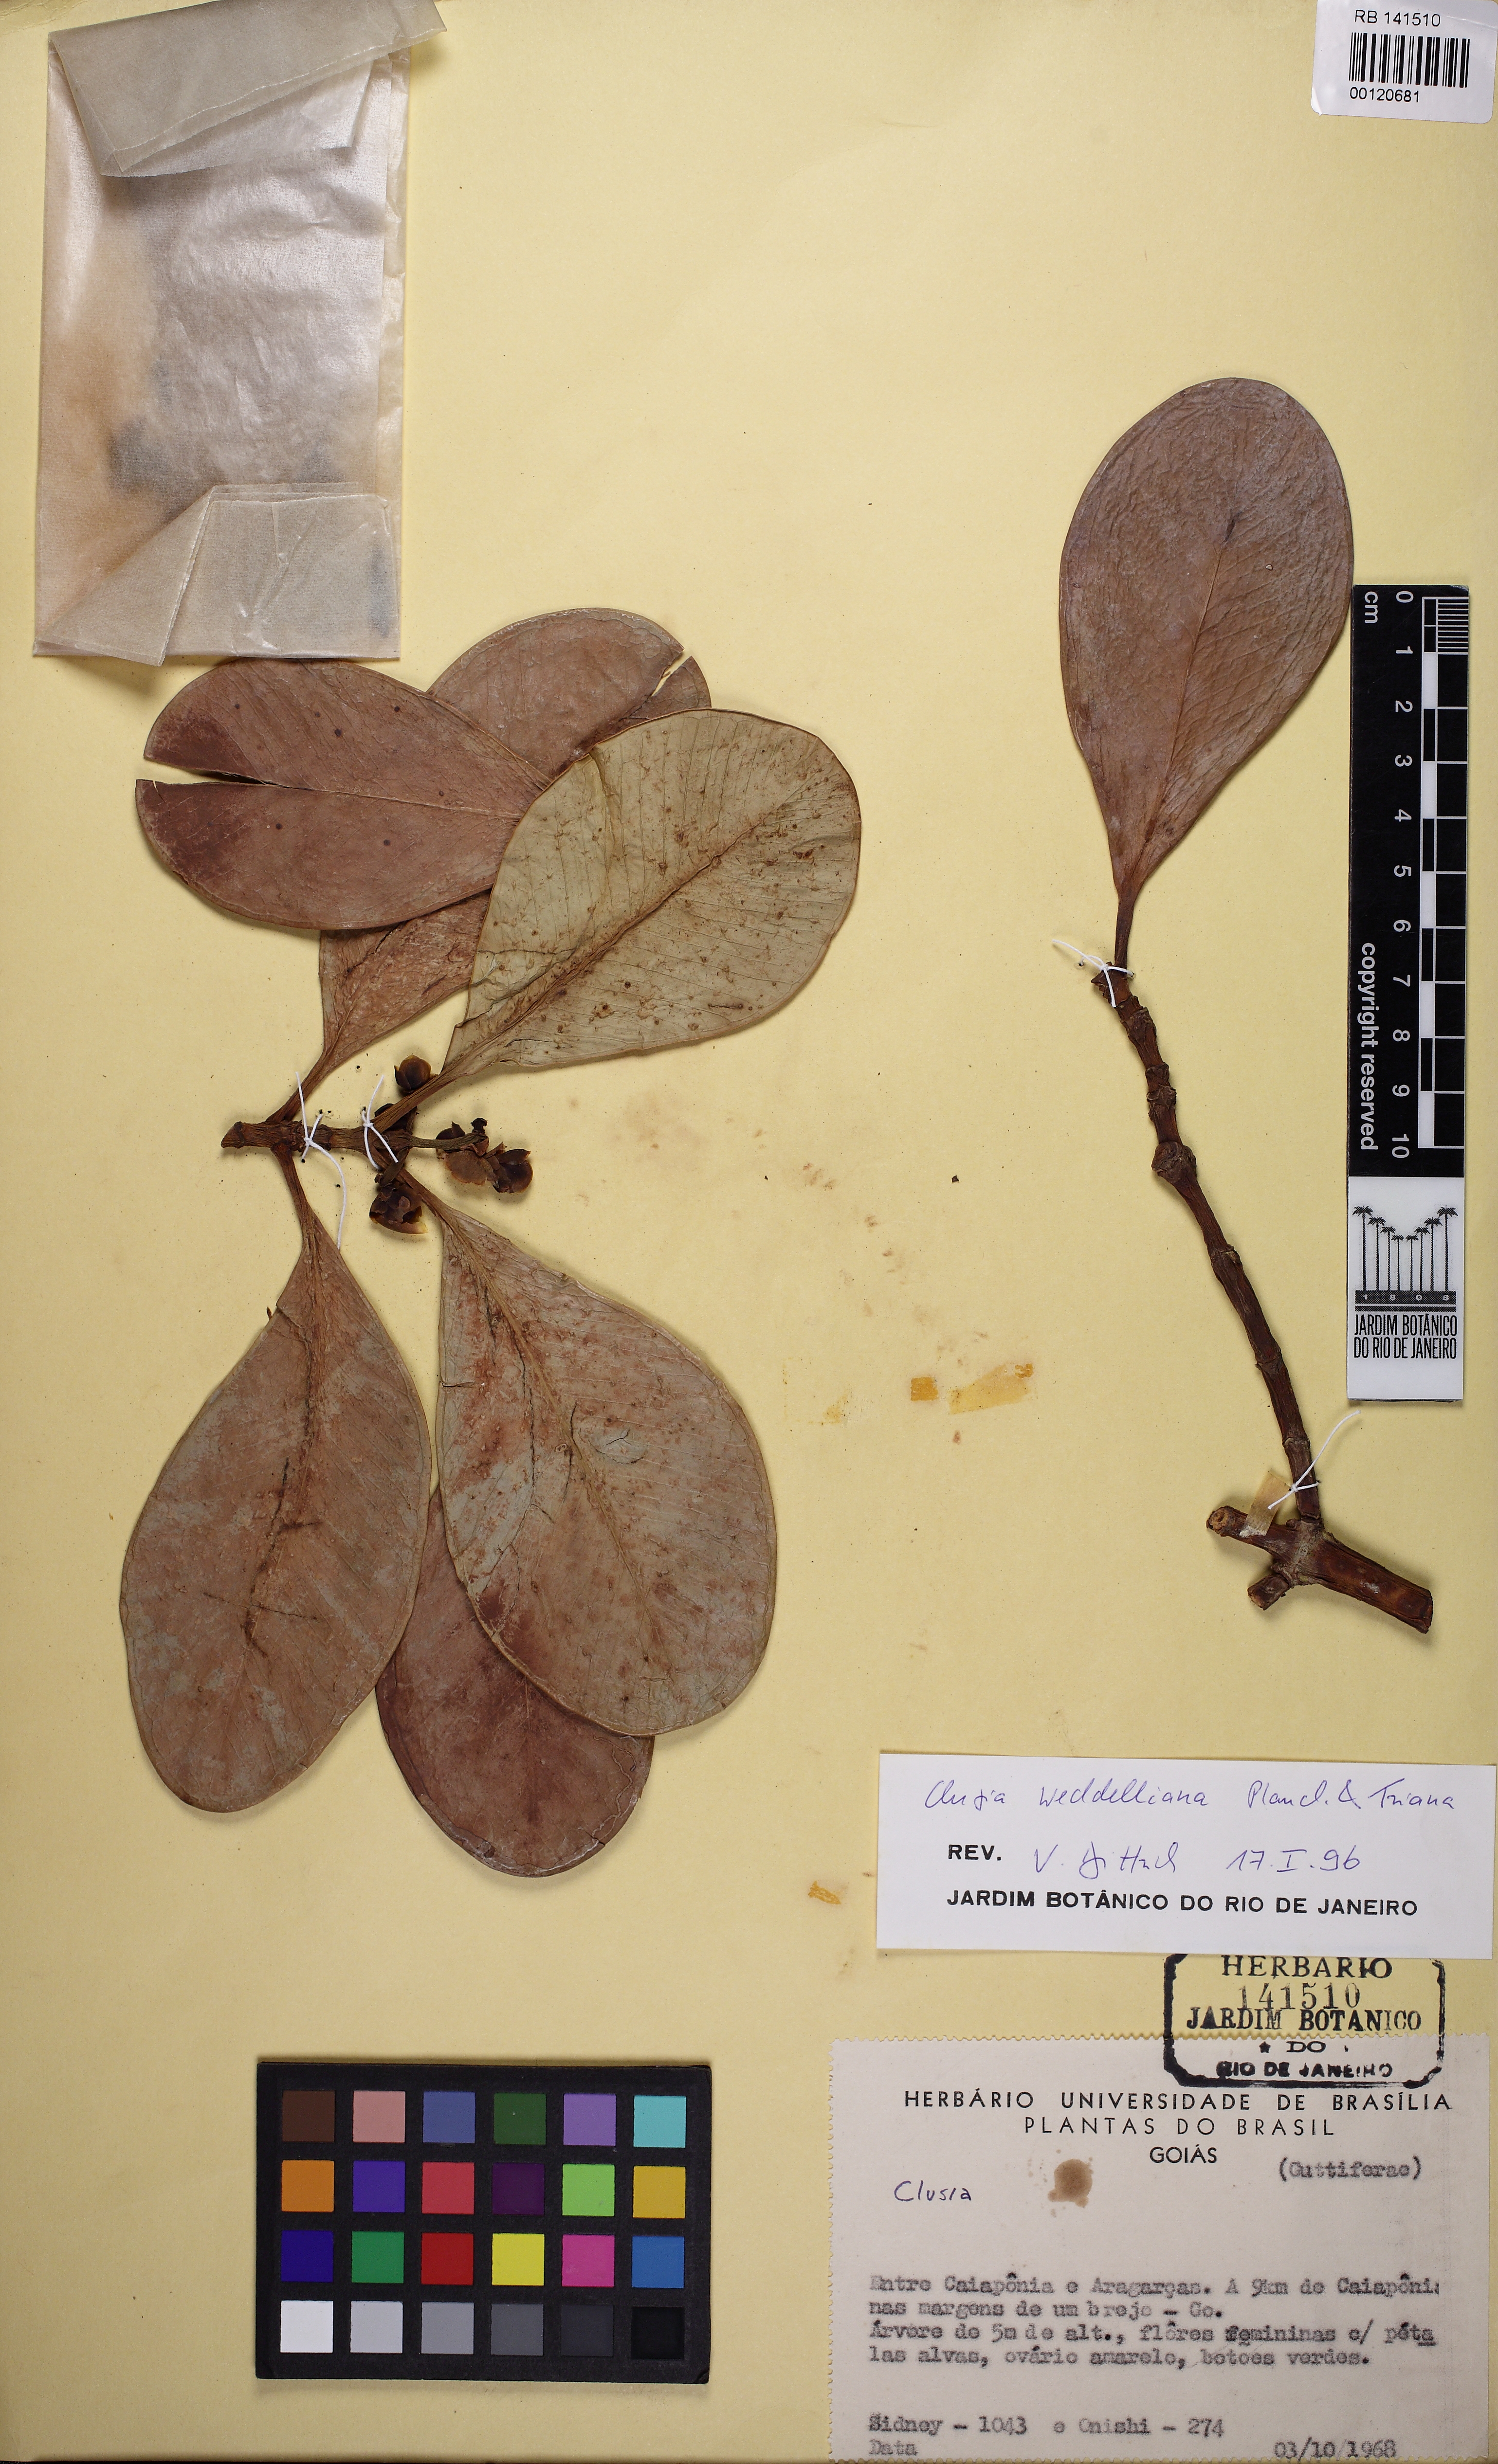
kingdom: Plantae
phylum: Tracheophyta
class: Magnoliopsida
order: Malpighiales
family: Clusiaceae
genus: Clusia
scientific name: Clusia weddelliana
